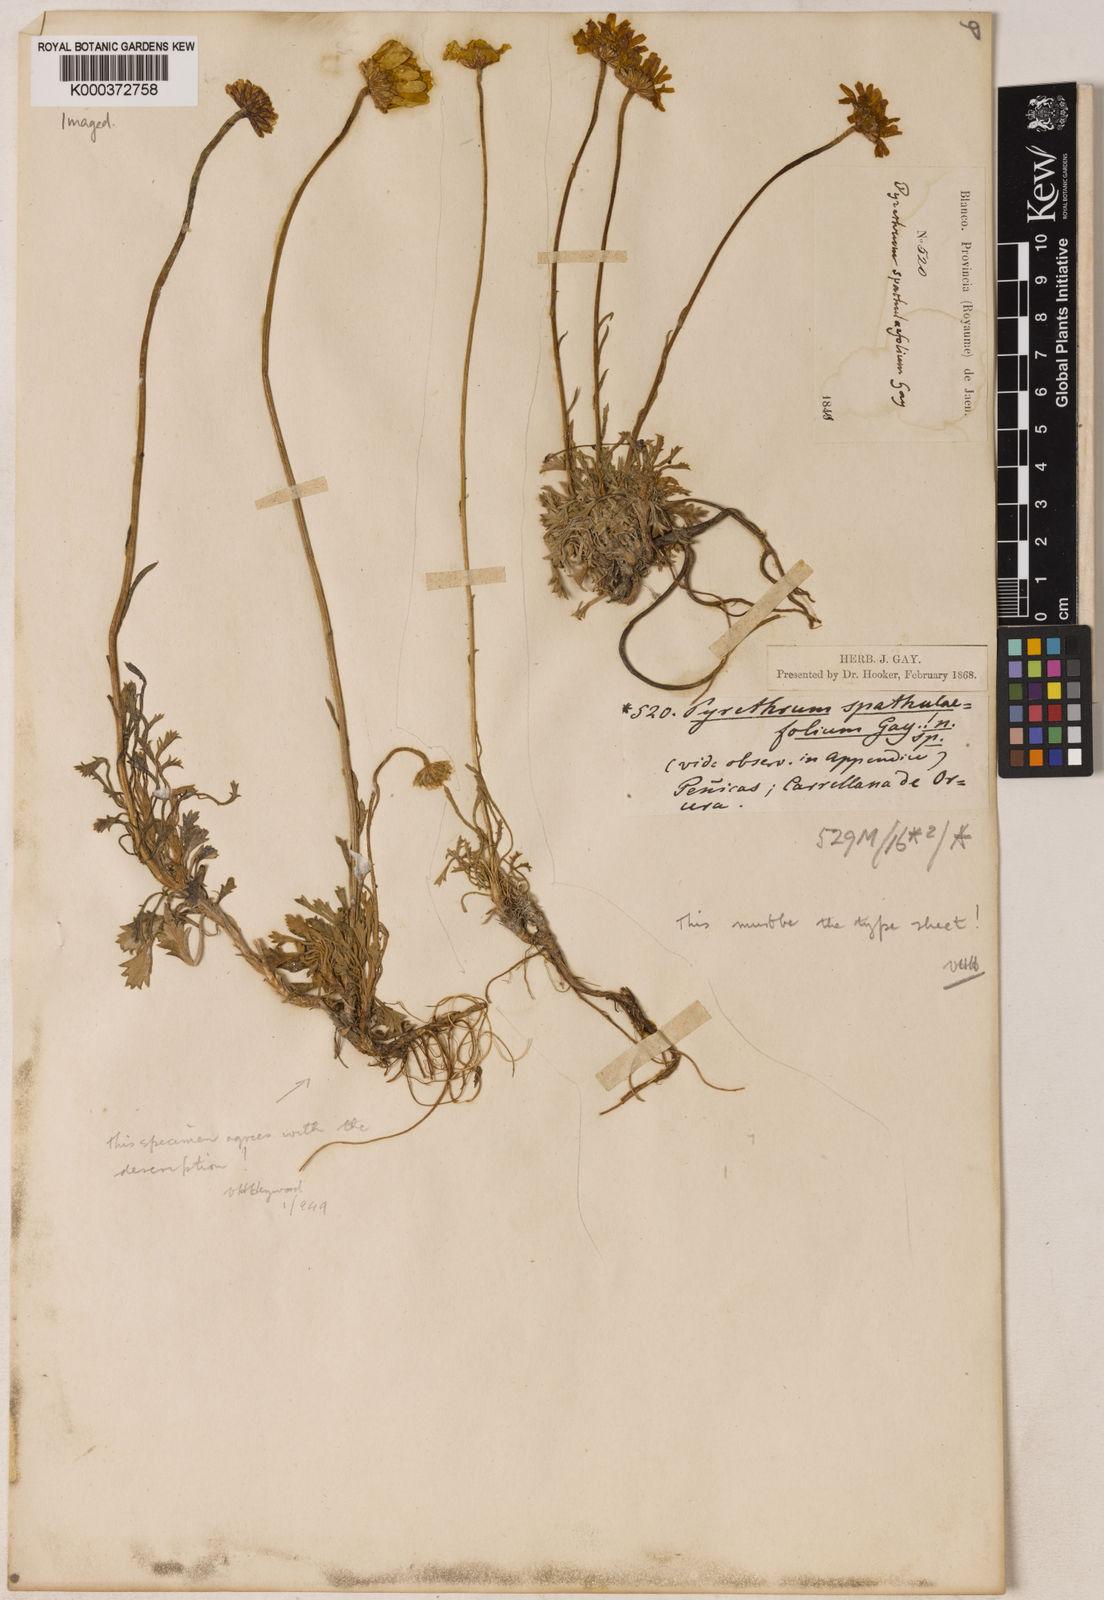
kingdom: Plantae
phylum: Tracheophyta
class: Magnoliopsida
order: Asterales
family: Asteraceae
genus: Leucanthemopsis
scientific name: Leucanthemopsis spathulifolia
